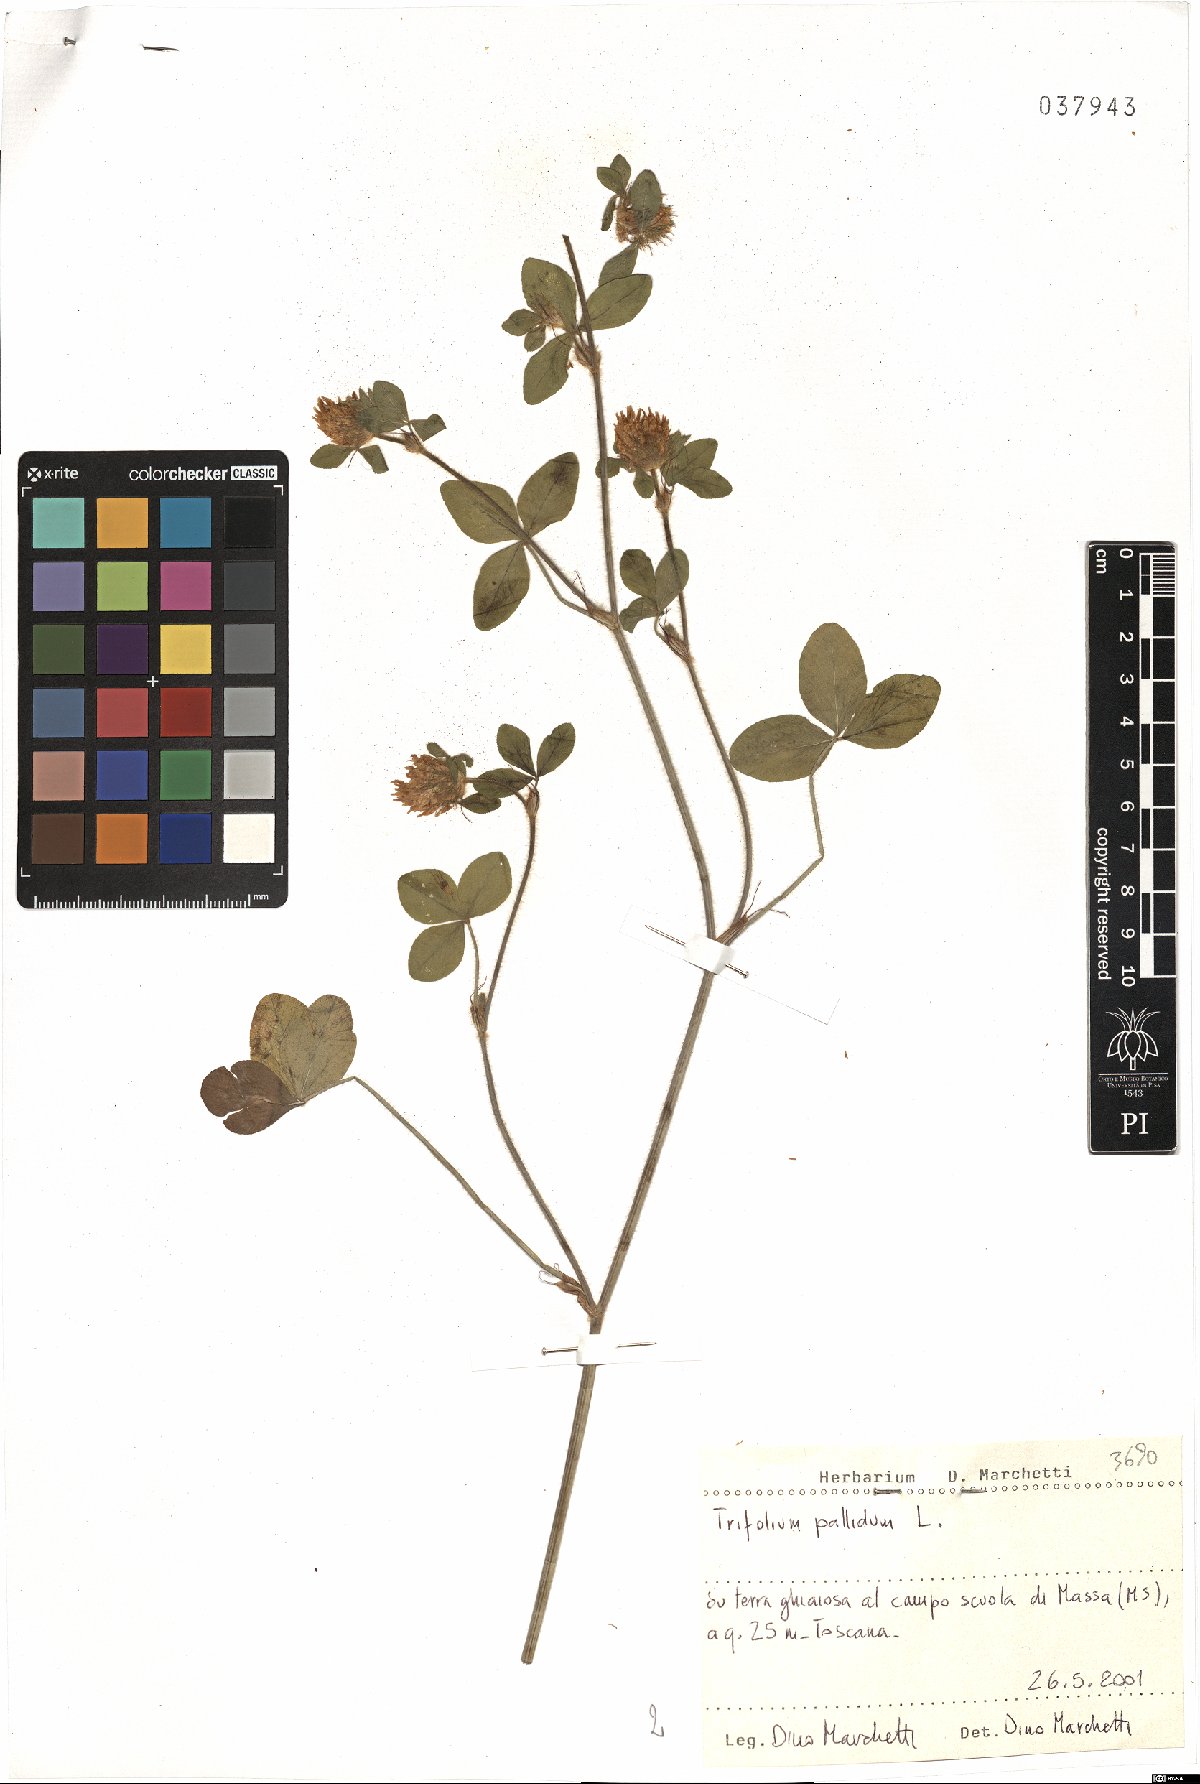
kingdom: Plantae
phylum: Tracheophyta
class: Magnoliopsida
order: Fabales
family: Fabaceae
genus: Trifolium
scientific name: Trifolium pallidum
